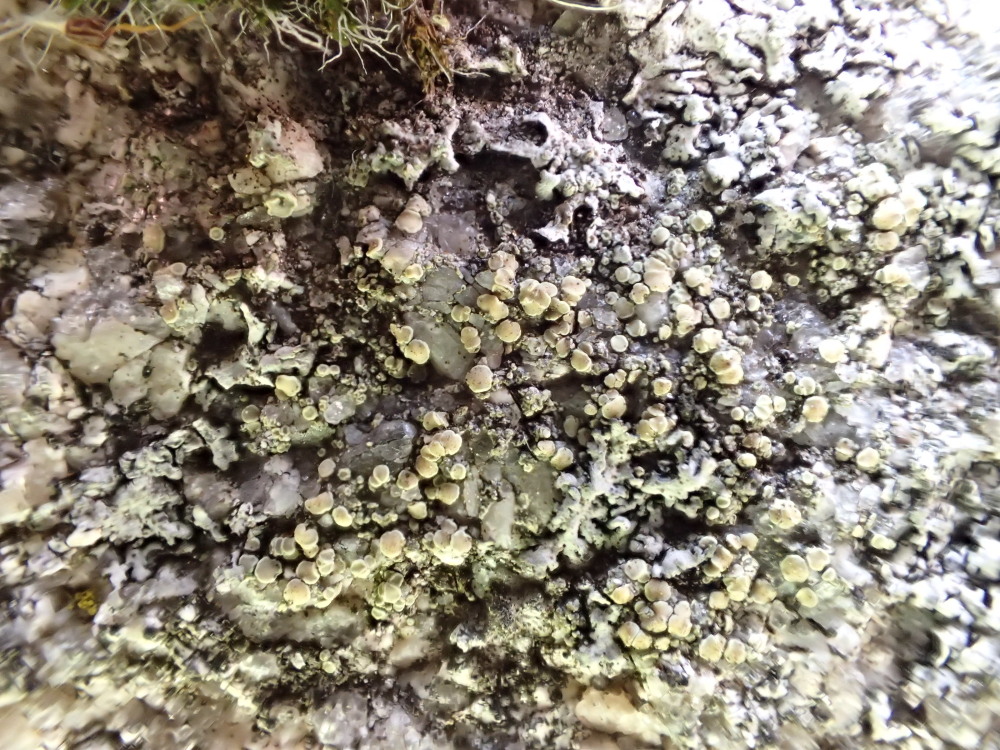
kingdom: Fungi
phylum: Ascomycota
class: Lecanoromycetes
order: Lecanorales
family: Lecanoraceae
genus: Lecanora
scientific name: Lecanora polytropa
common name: bleggrøn kantskivelav
